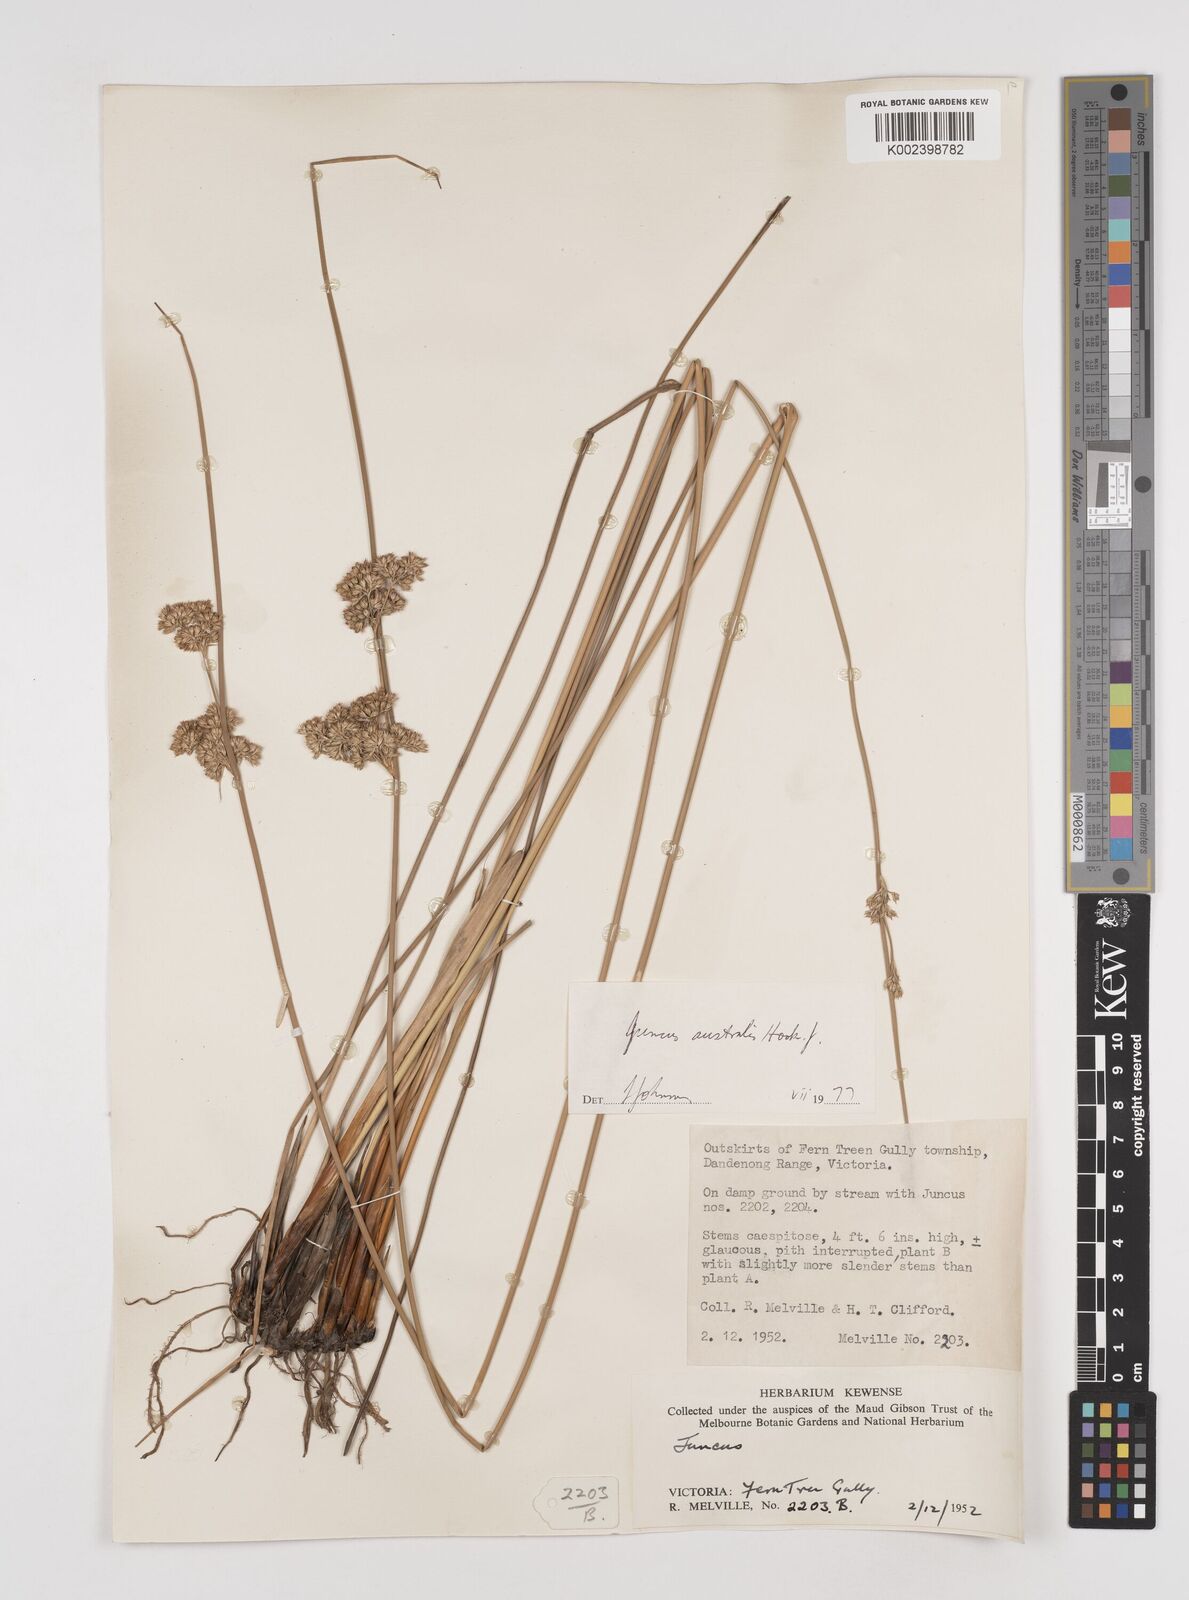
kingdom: Plantae
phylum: Tracheophyta
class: Liliopsida
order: Poales
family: Juncaceae
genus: Juncus
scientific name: Juncus australis
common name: Austral rush
